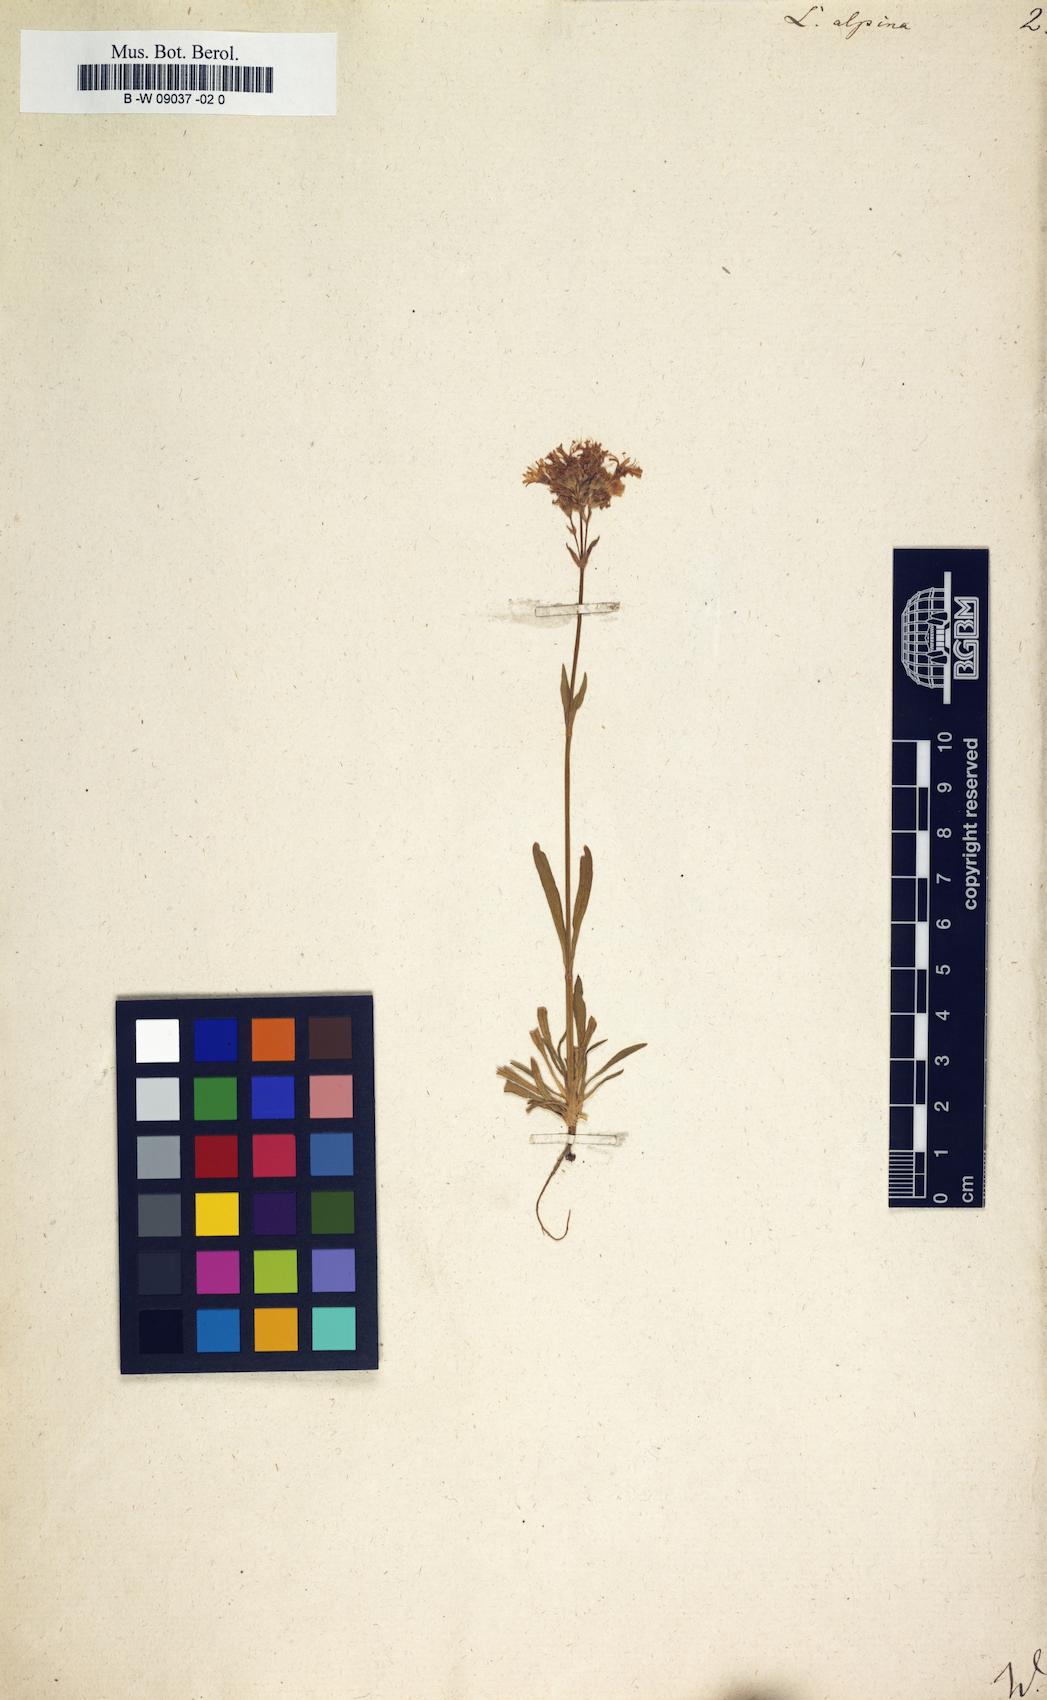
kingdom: Plantae
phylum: Tracheophyta
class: Magnoliopsida
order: Caryophyllales
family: Caryophyllaceae
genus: Viscaria
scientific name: Viscaria alpina
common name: Alpine campion
